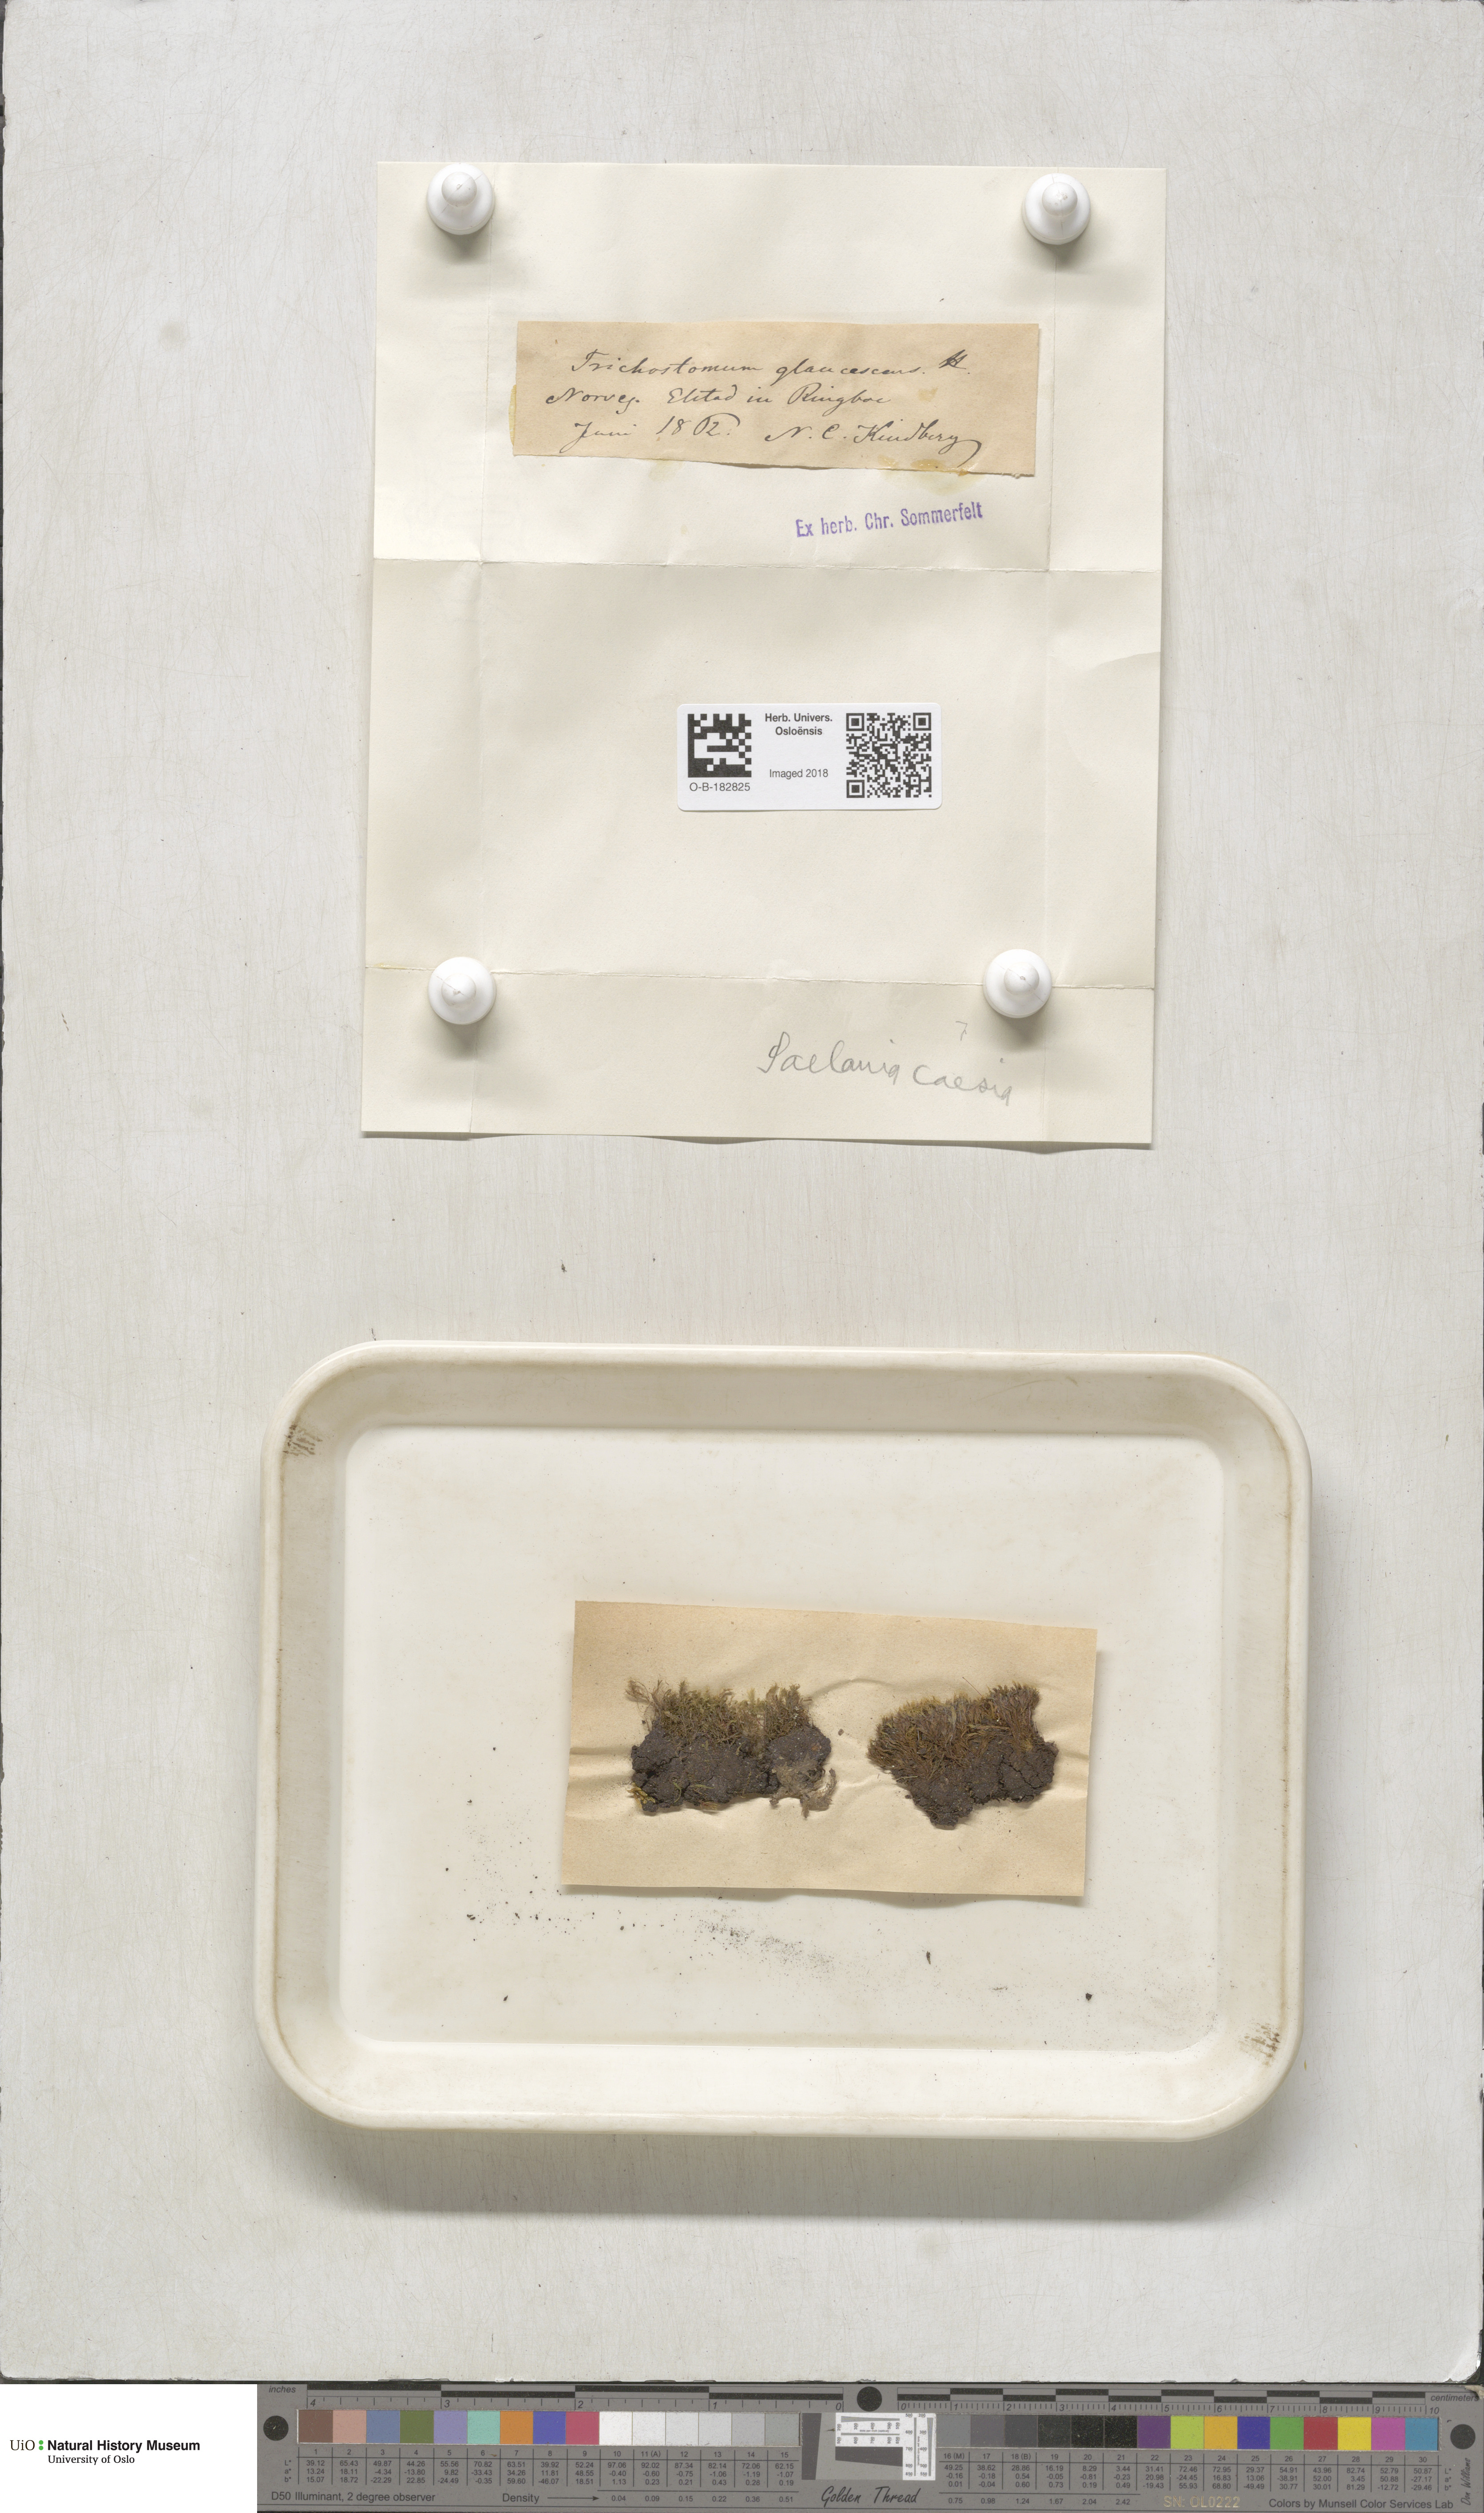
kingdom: Plantae
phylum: Bryophyta
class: Bryopsida
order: Grimmiales
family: Saelaniaceae
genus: Saelania
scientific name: Saelania glaucescens
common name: Blue dew-moss
